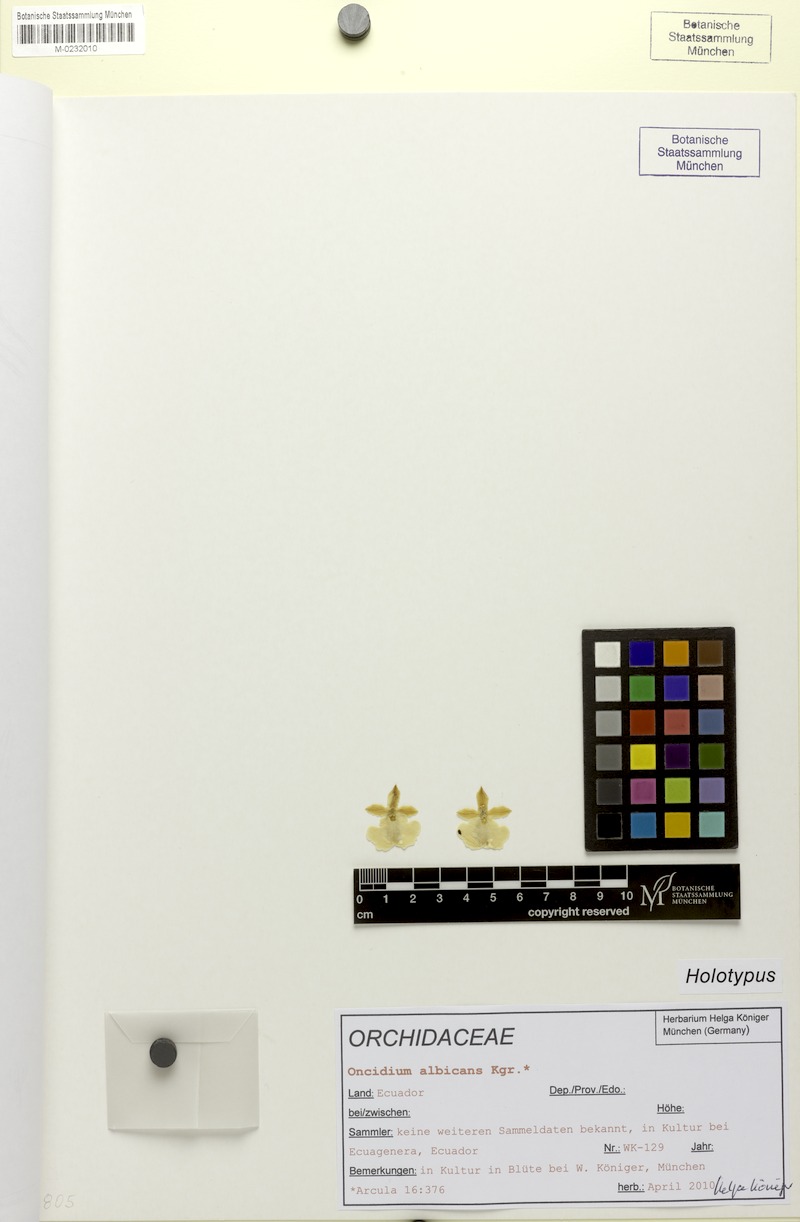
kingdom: Plantae
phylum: Tracheophyta
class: Liliopsida
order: Asparagales
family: Orchidaceae
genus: Oncidium
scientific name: Oncidium albicans
